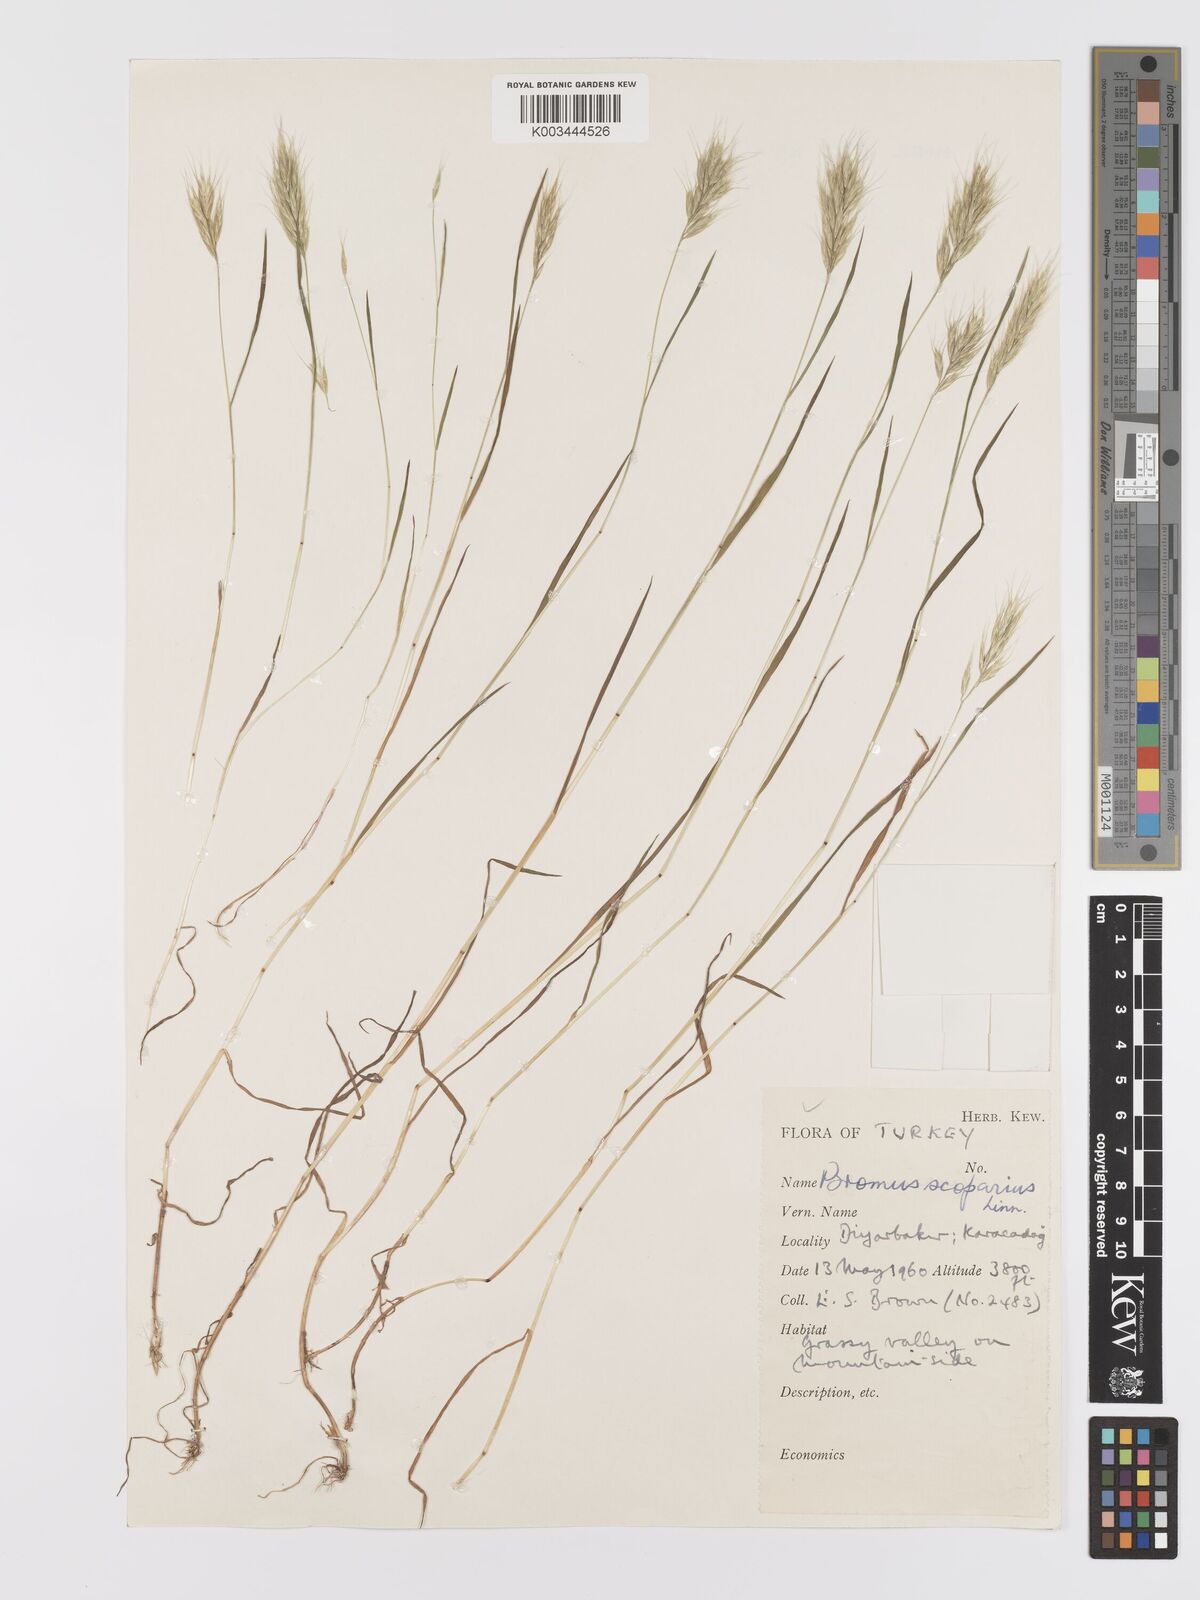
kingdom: Plantae
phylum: Tracheophyta
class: Liliopsida
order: Poales
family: Poaceae
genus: Bromus
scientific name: Bromus scoparius
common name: Broom brome
